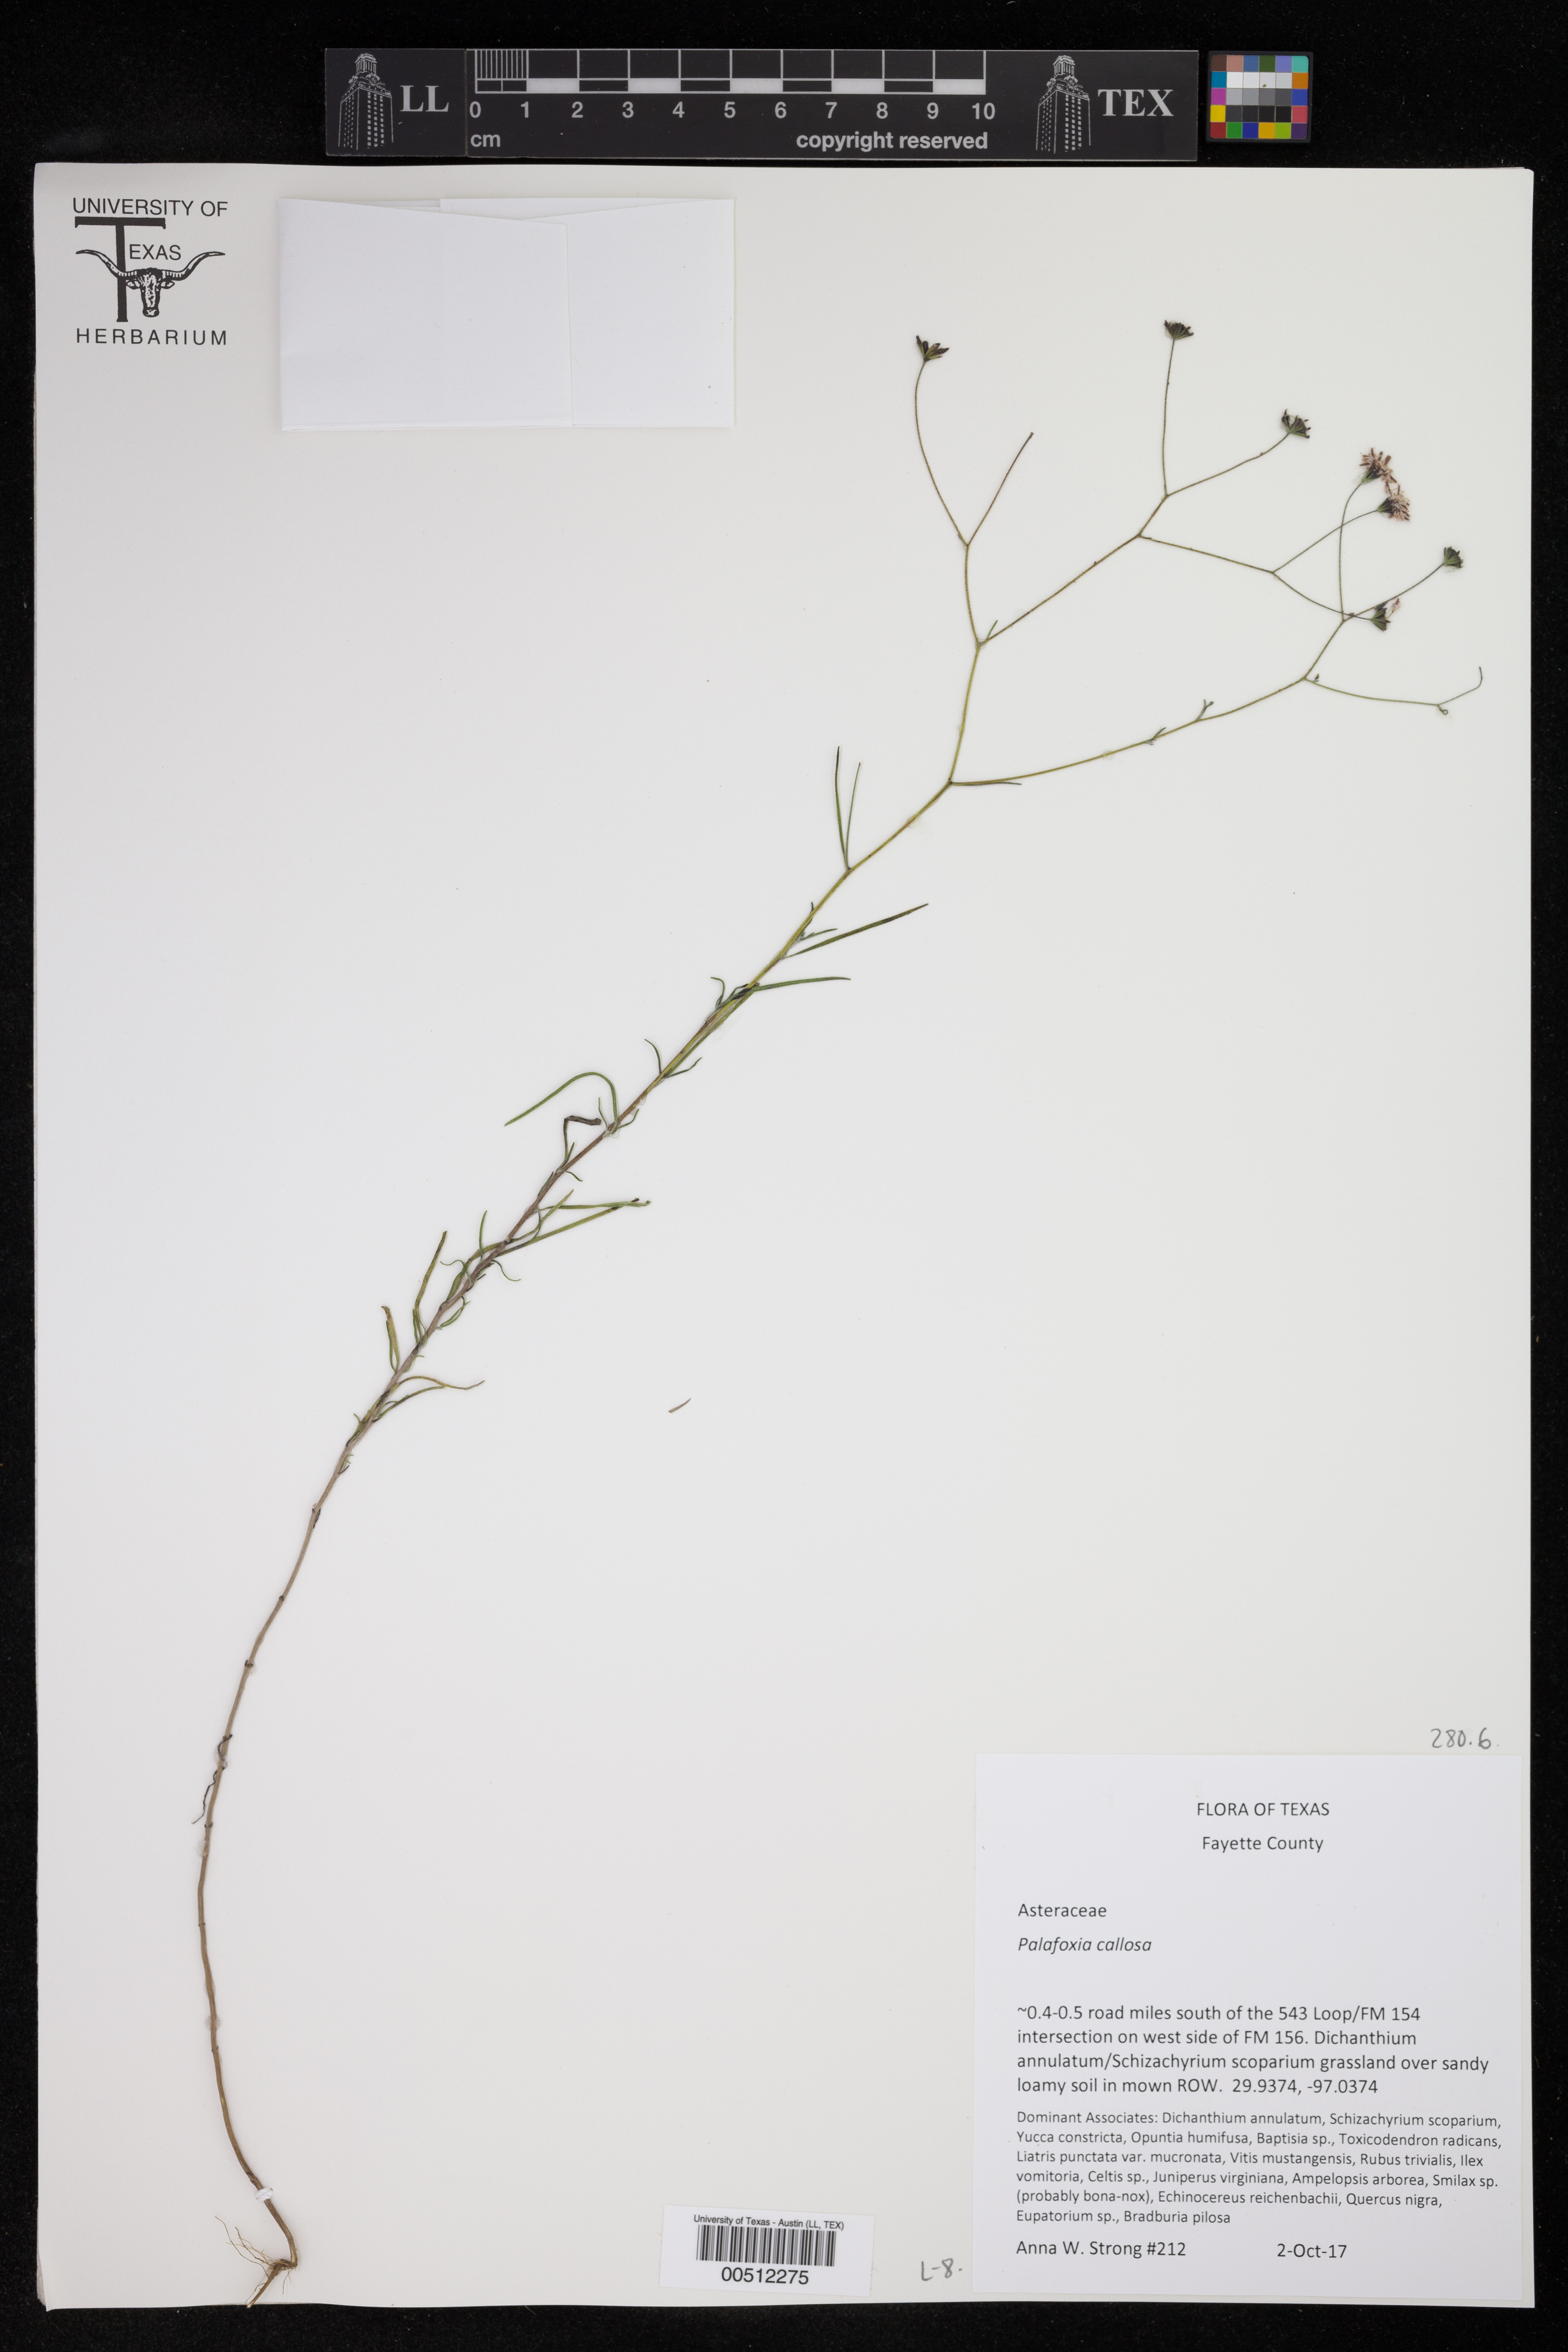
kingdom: Plantae
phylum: Tracheophyta
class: Magnoliopsida
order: Asterales
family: Asteraceae
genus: Palafoxia
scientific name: Palafoxia callosa
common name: Small palafox
